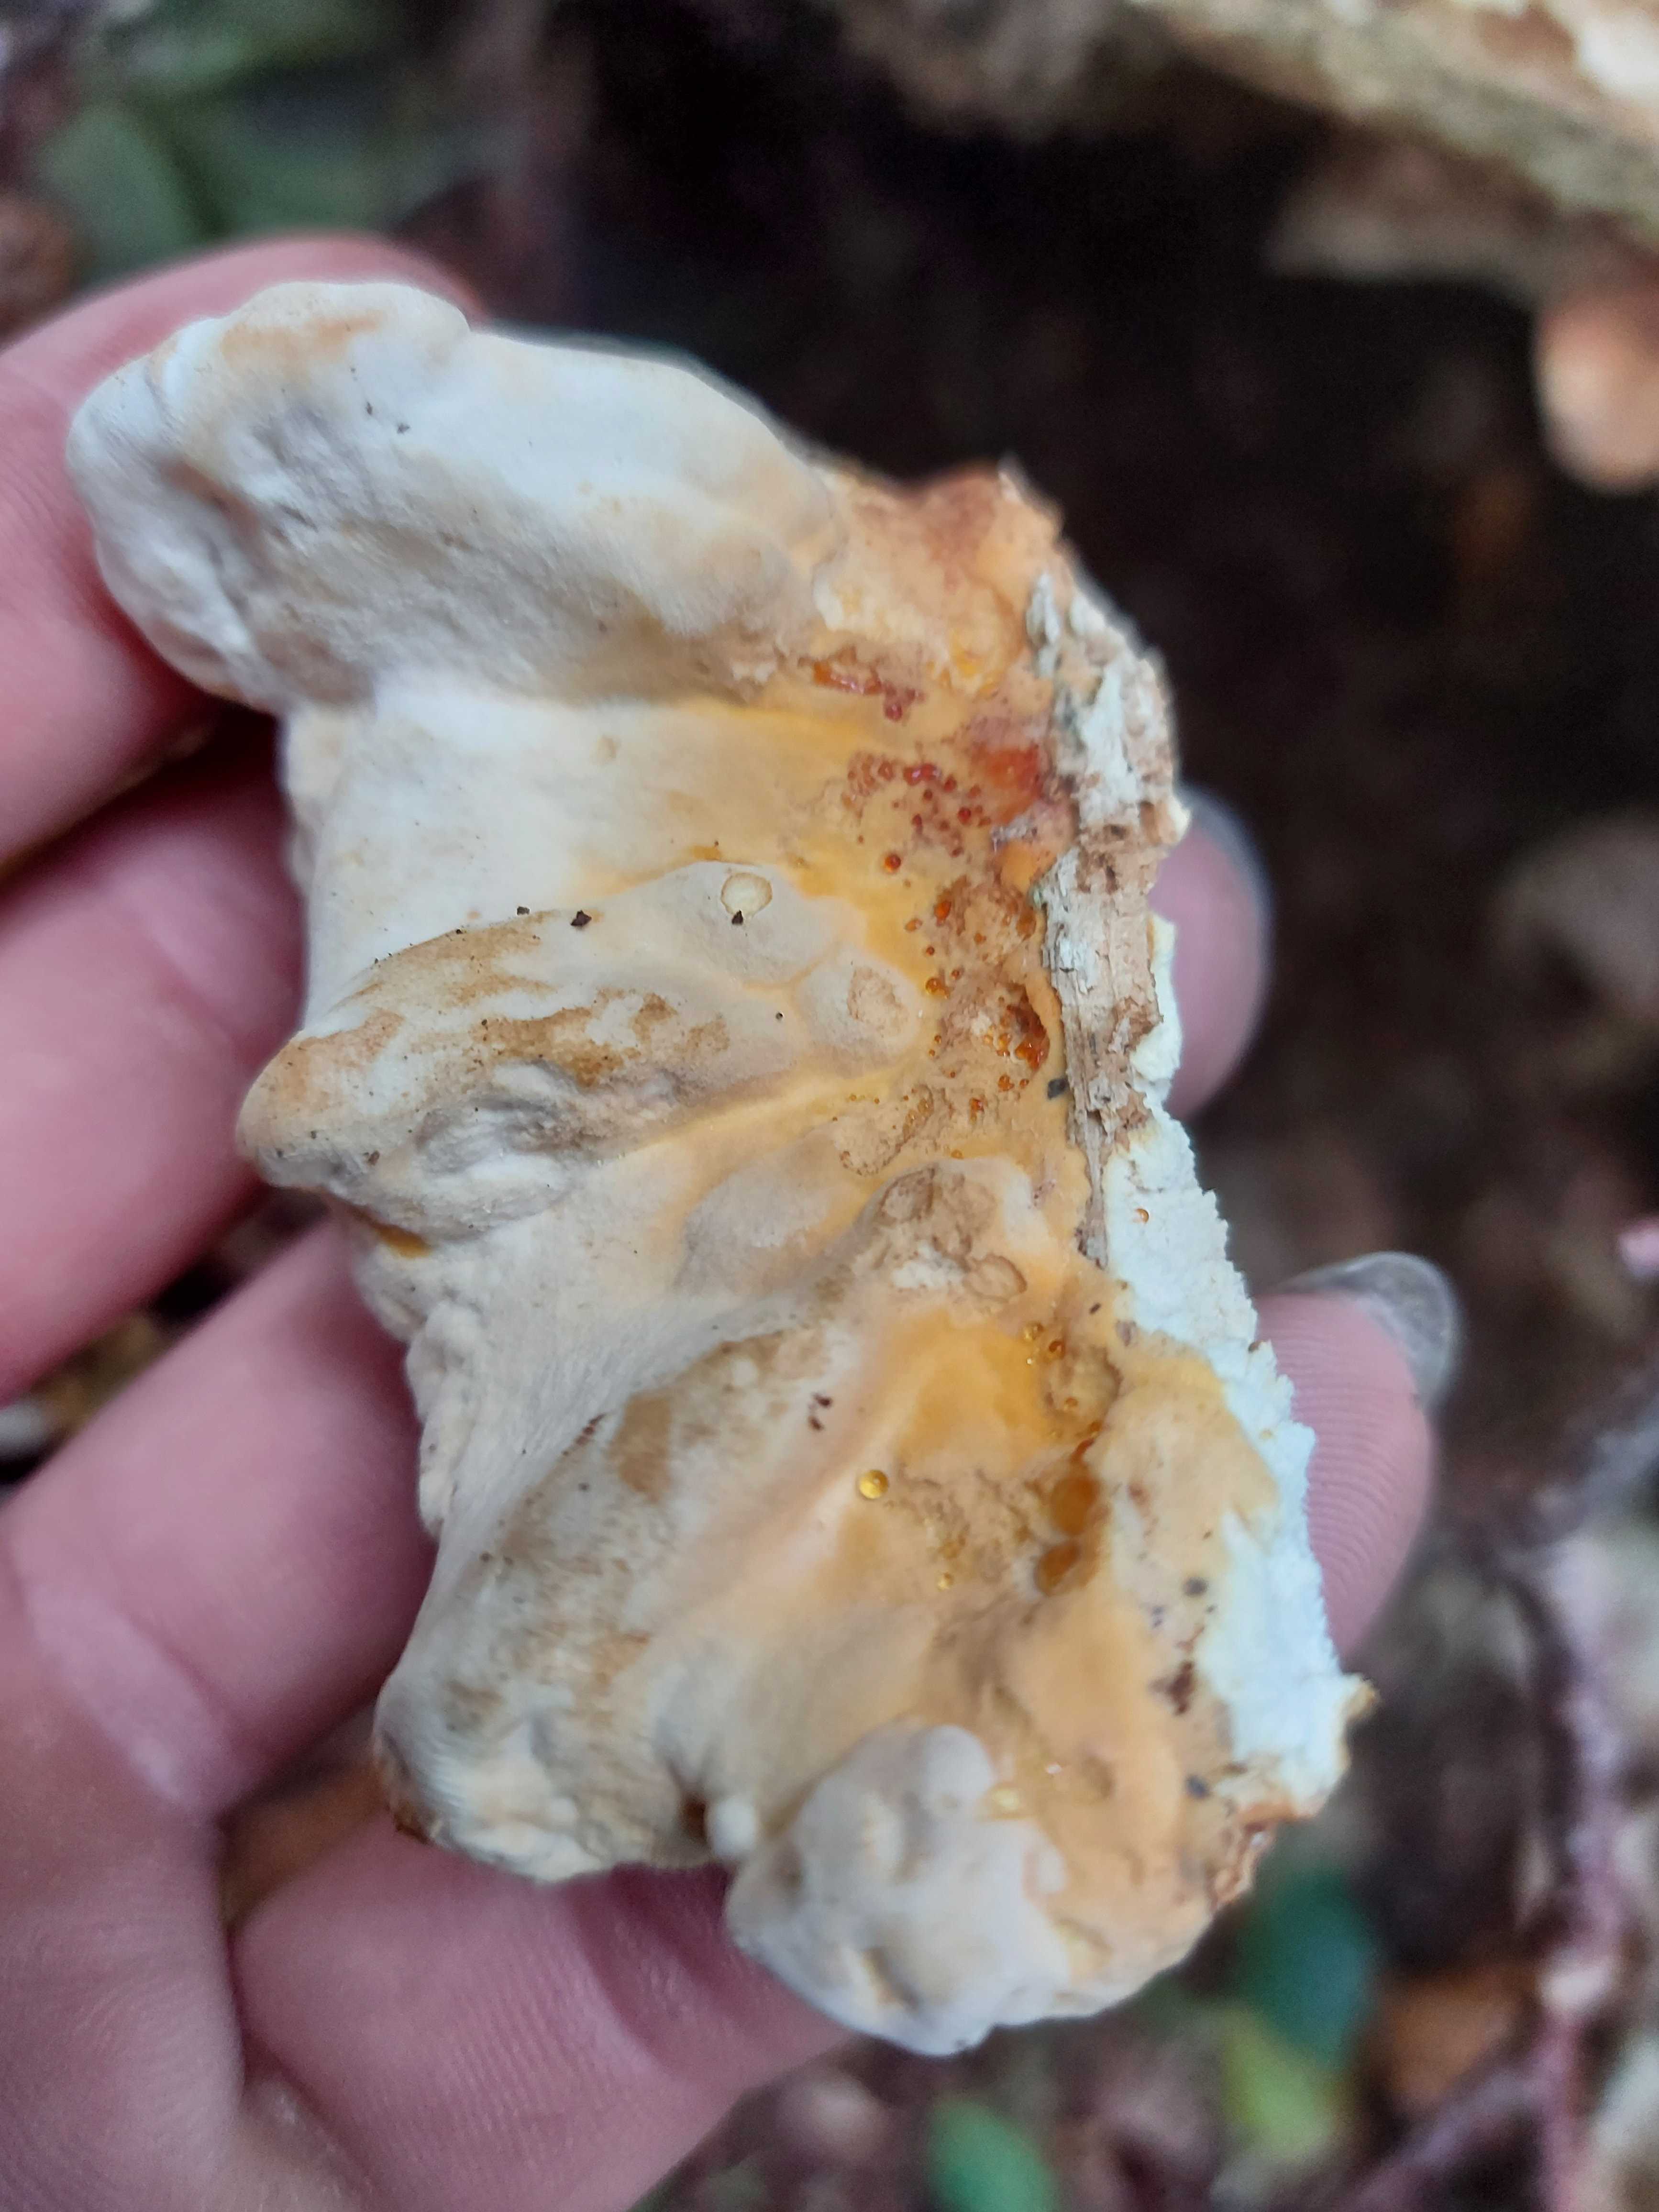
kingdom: Fungi
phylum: Basidiomycota
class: Agaricomycetes
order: Polyporales
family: Laetiporaceae
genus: Laetiporus
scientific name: Laetiporus sulphureus
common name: svovlporesvamp
